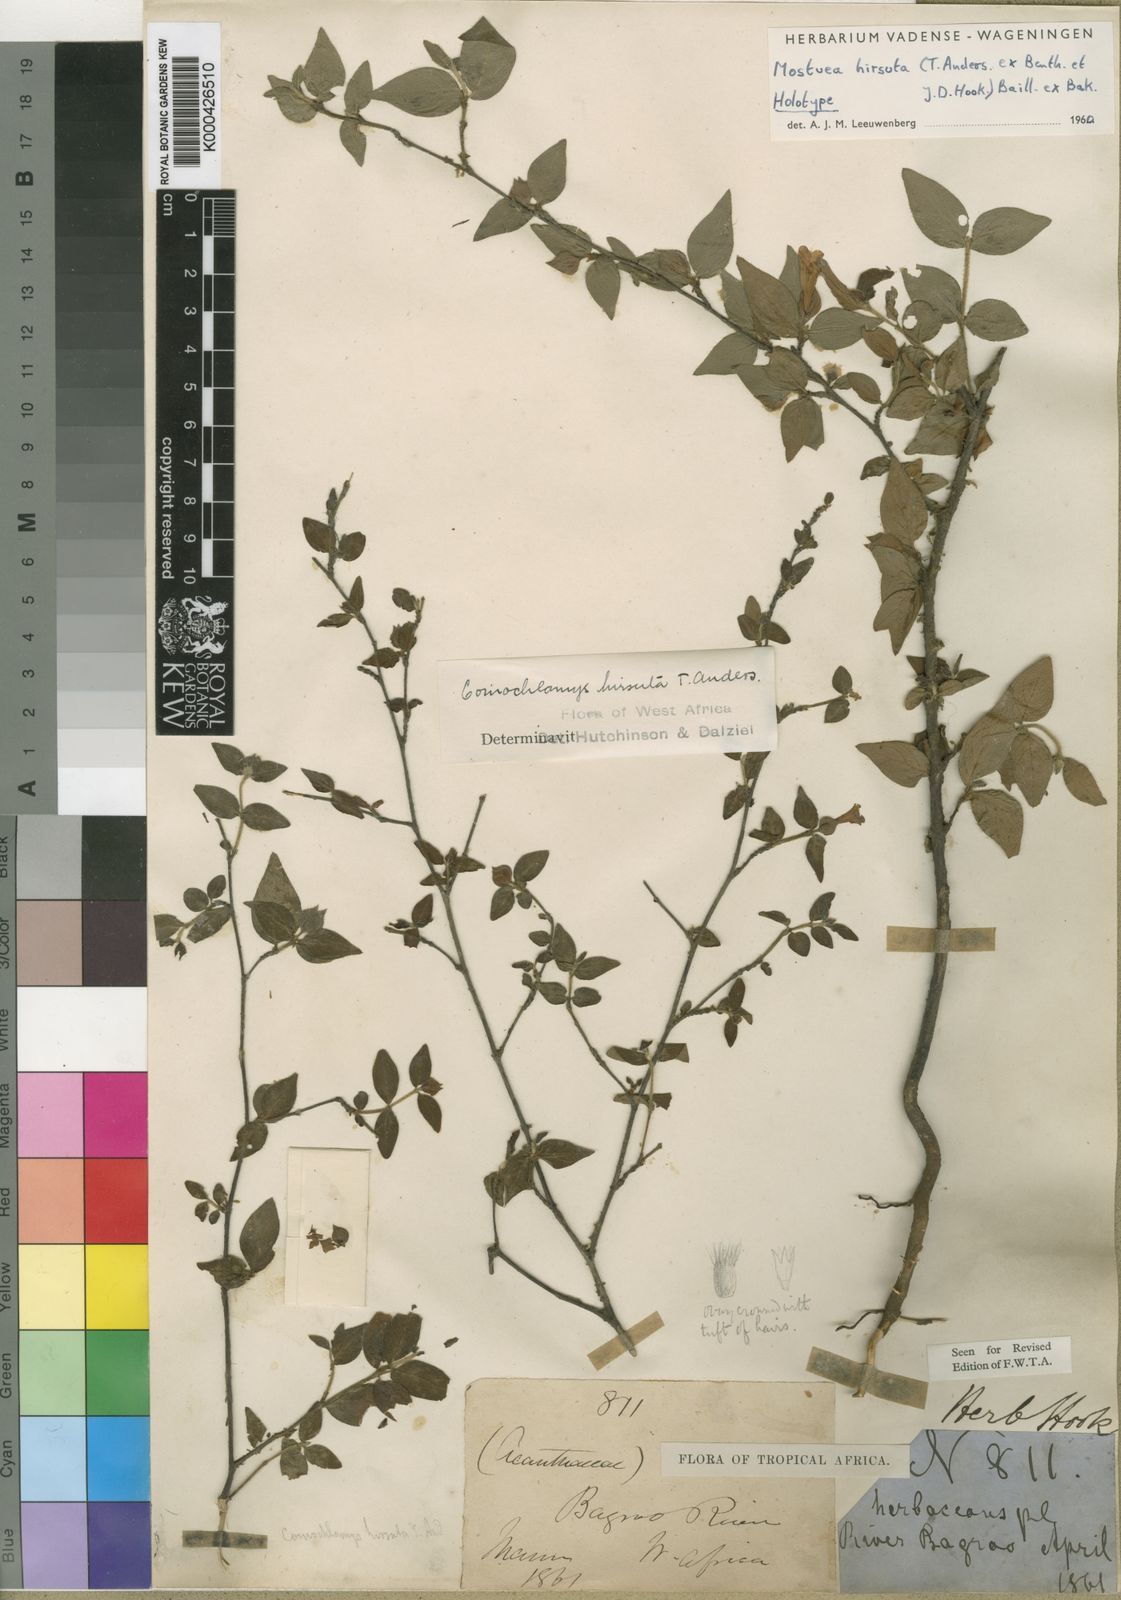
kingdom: Plantae
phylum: Tracheophyta
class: Magnoliopsida
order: Gentianales
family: Gelsemiaceae
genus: Mostuea
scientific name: Mostuea
